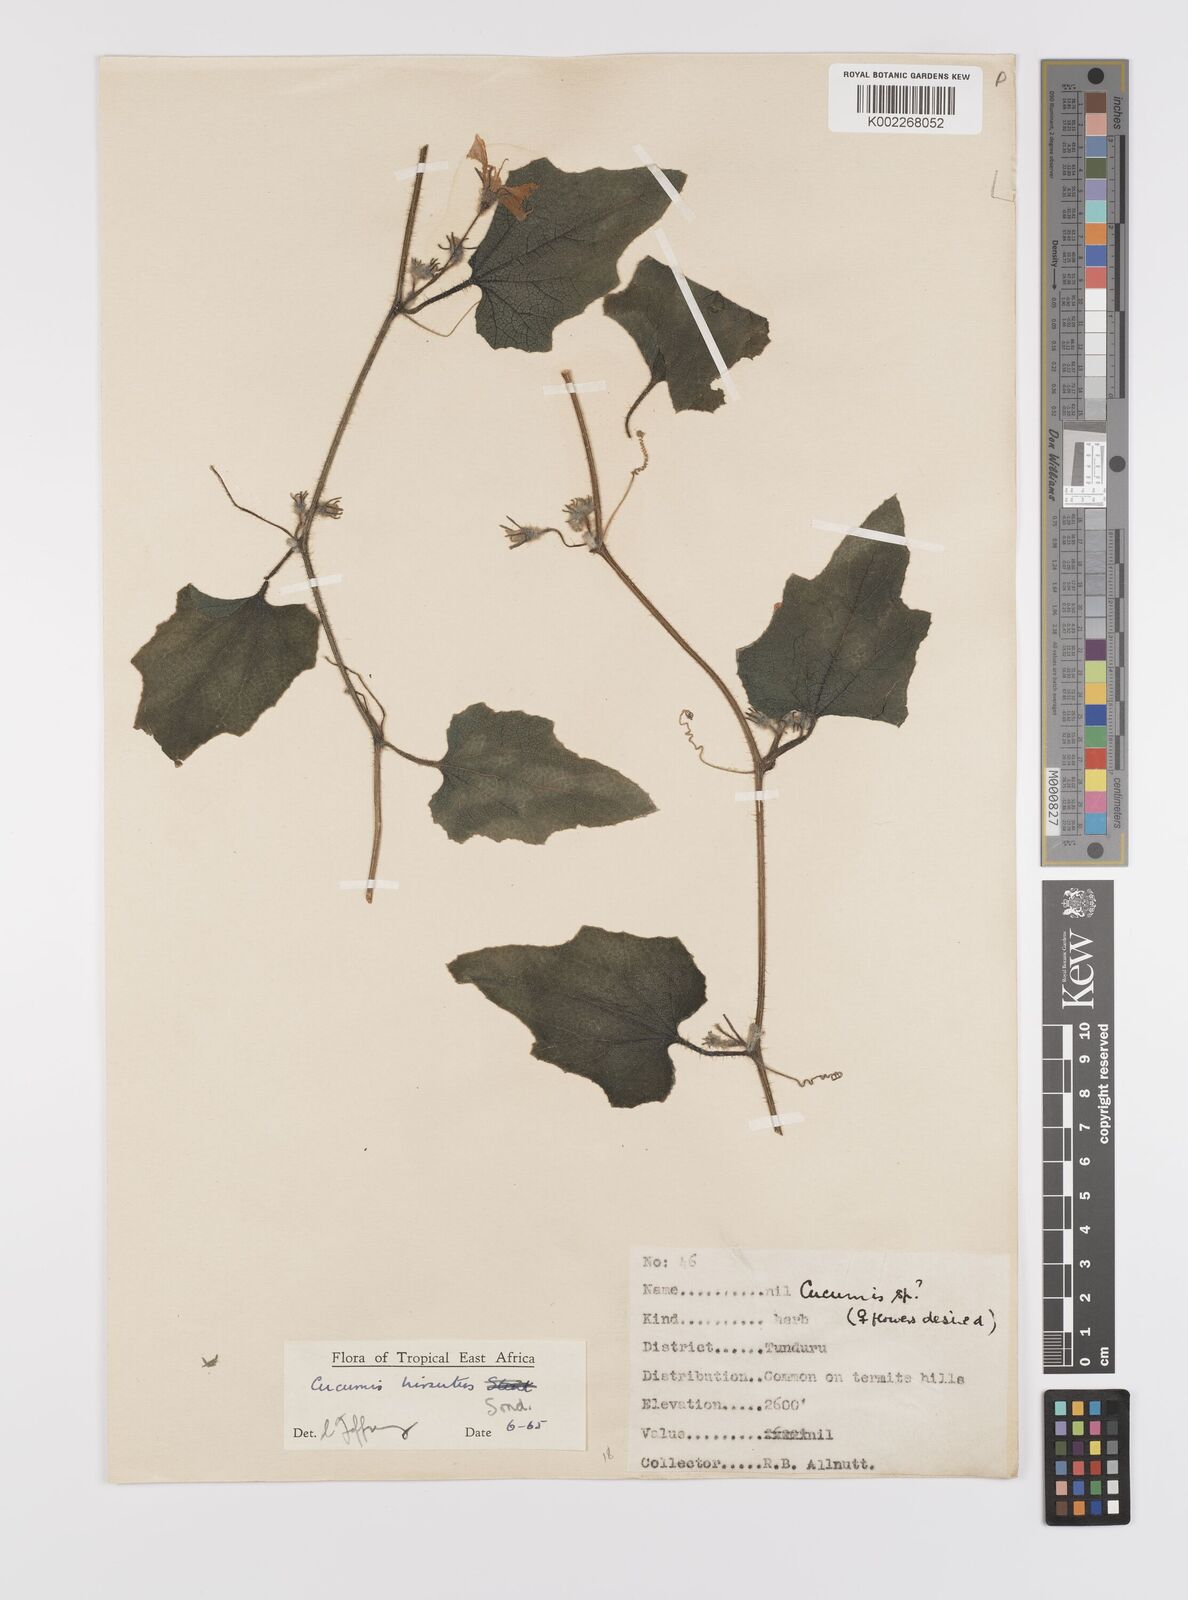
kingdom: Plantae
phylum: Tracheophyta
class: Magnoliopsida
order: Cucurbitales
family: Cucurbitaceae
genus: Cucumis
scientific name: Cucumis hirsutus
